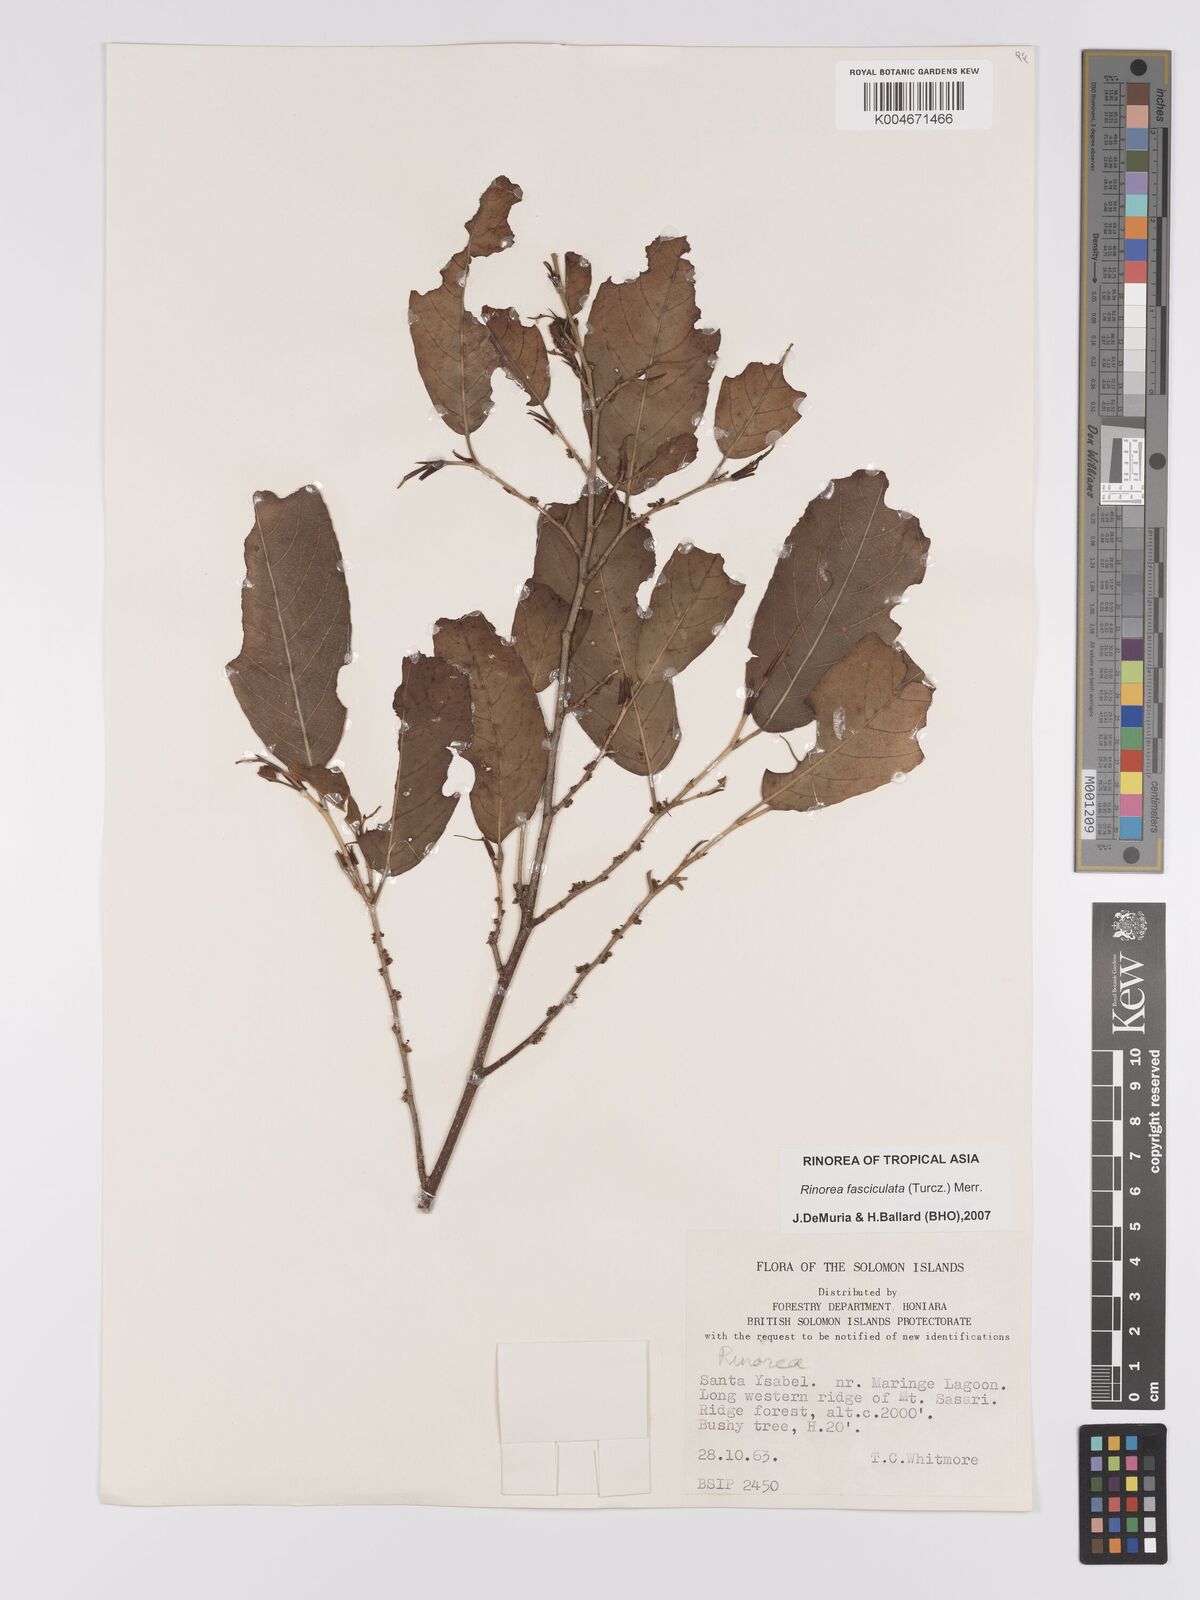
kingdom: Plantae
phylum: Tracheophyta
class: Magnoliopsida
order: Malpighiales
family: Violaceae
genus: Rinorea
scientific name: Rinorea bengalensis
